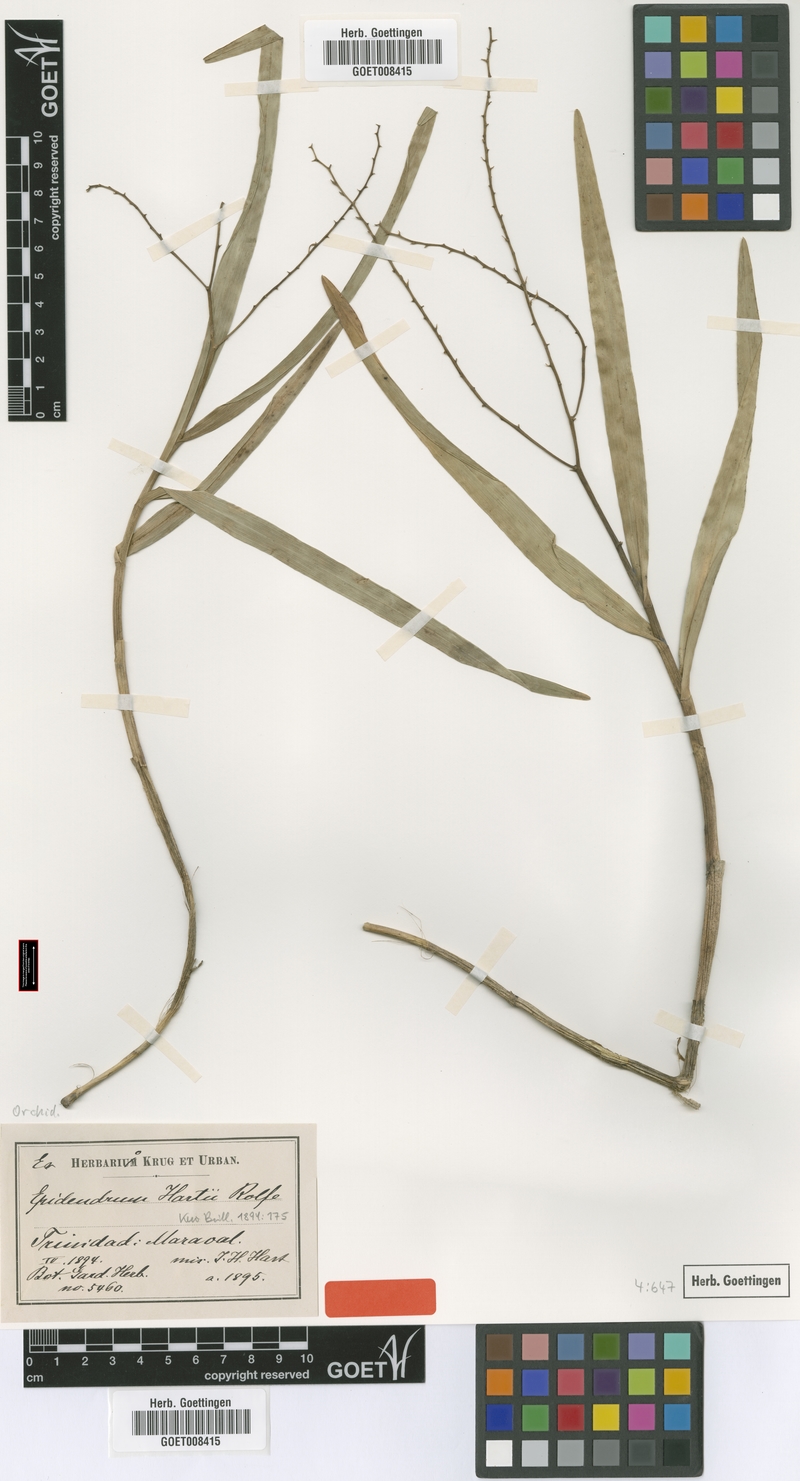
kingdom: Plantae
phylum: Tracheophyta
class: Liliopsida
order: Asparagales
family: Orchidaceae
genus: Epidendrum
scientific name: Epidendrum subpurum
